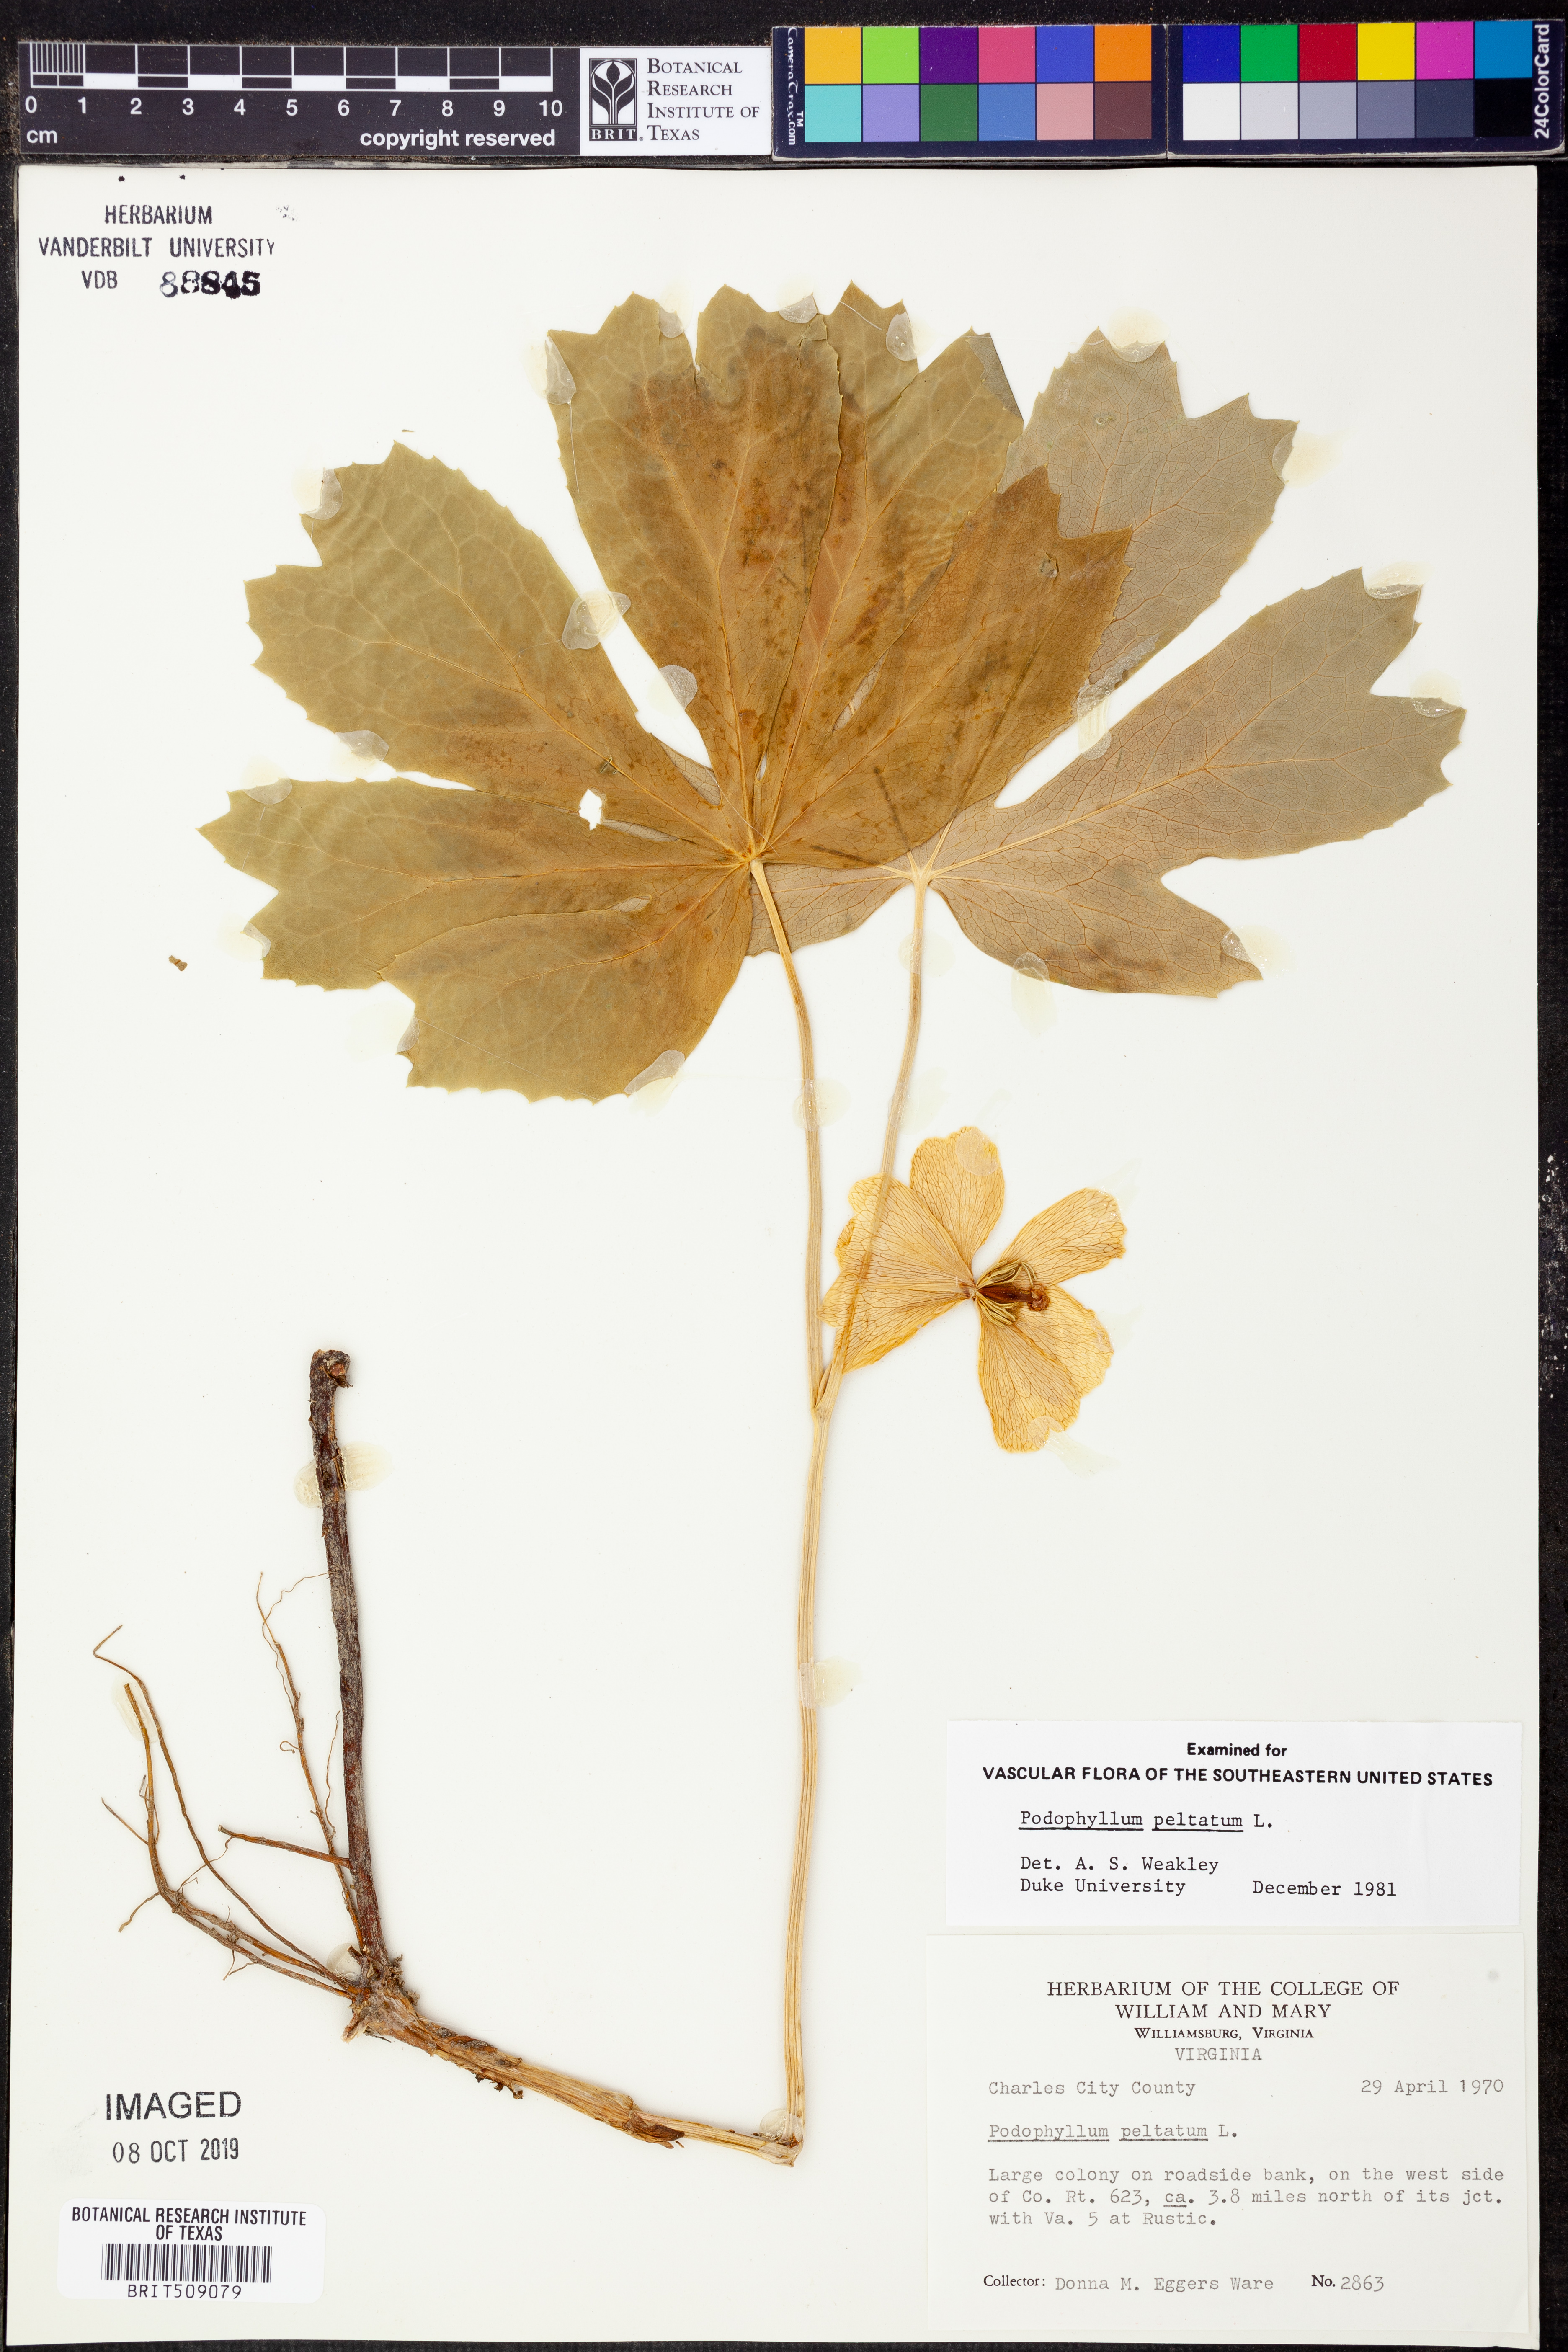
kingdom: Plantae
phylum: Tracheophyta
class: Magnoliopsida
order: Ranunculales
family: Berberidaceae
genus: Podophyllum
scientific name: Podophyllum peltatum
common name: Wild mandrake
